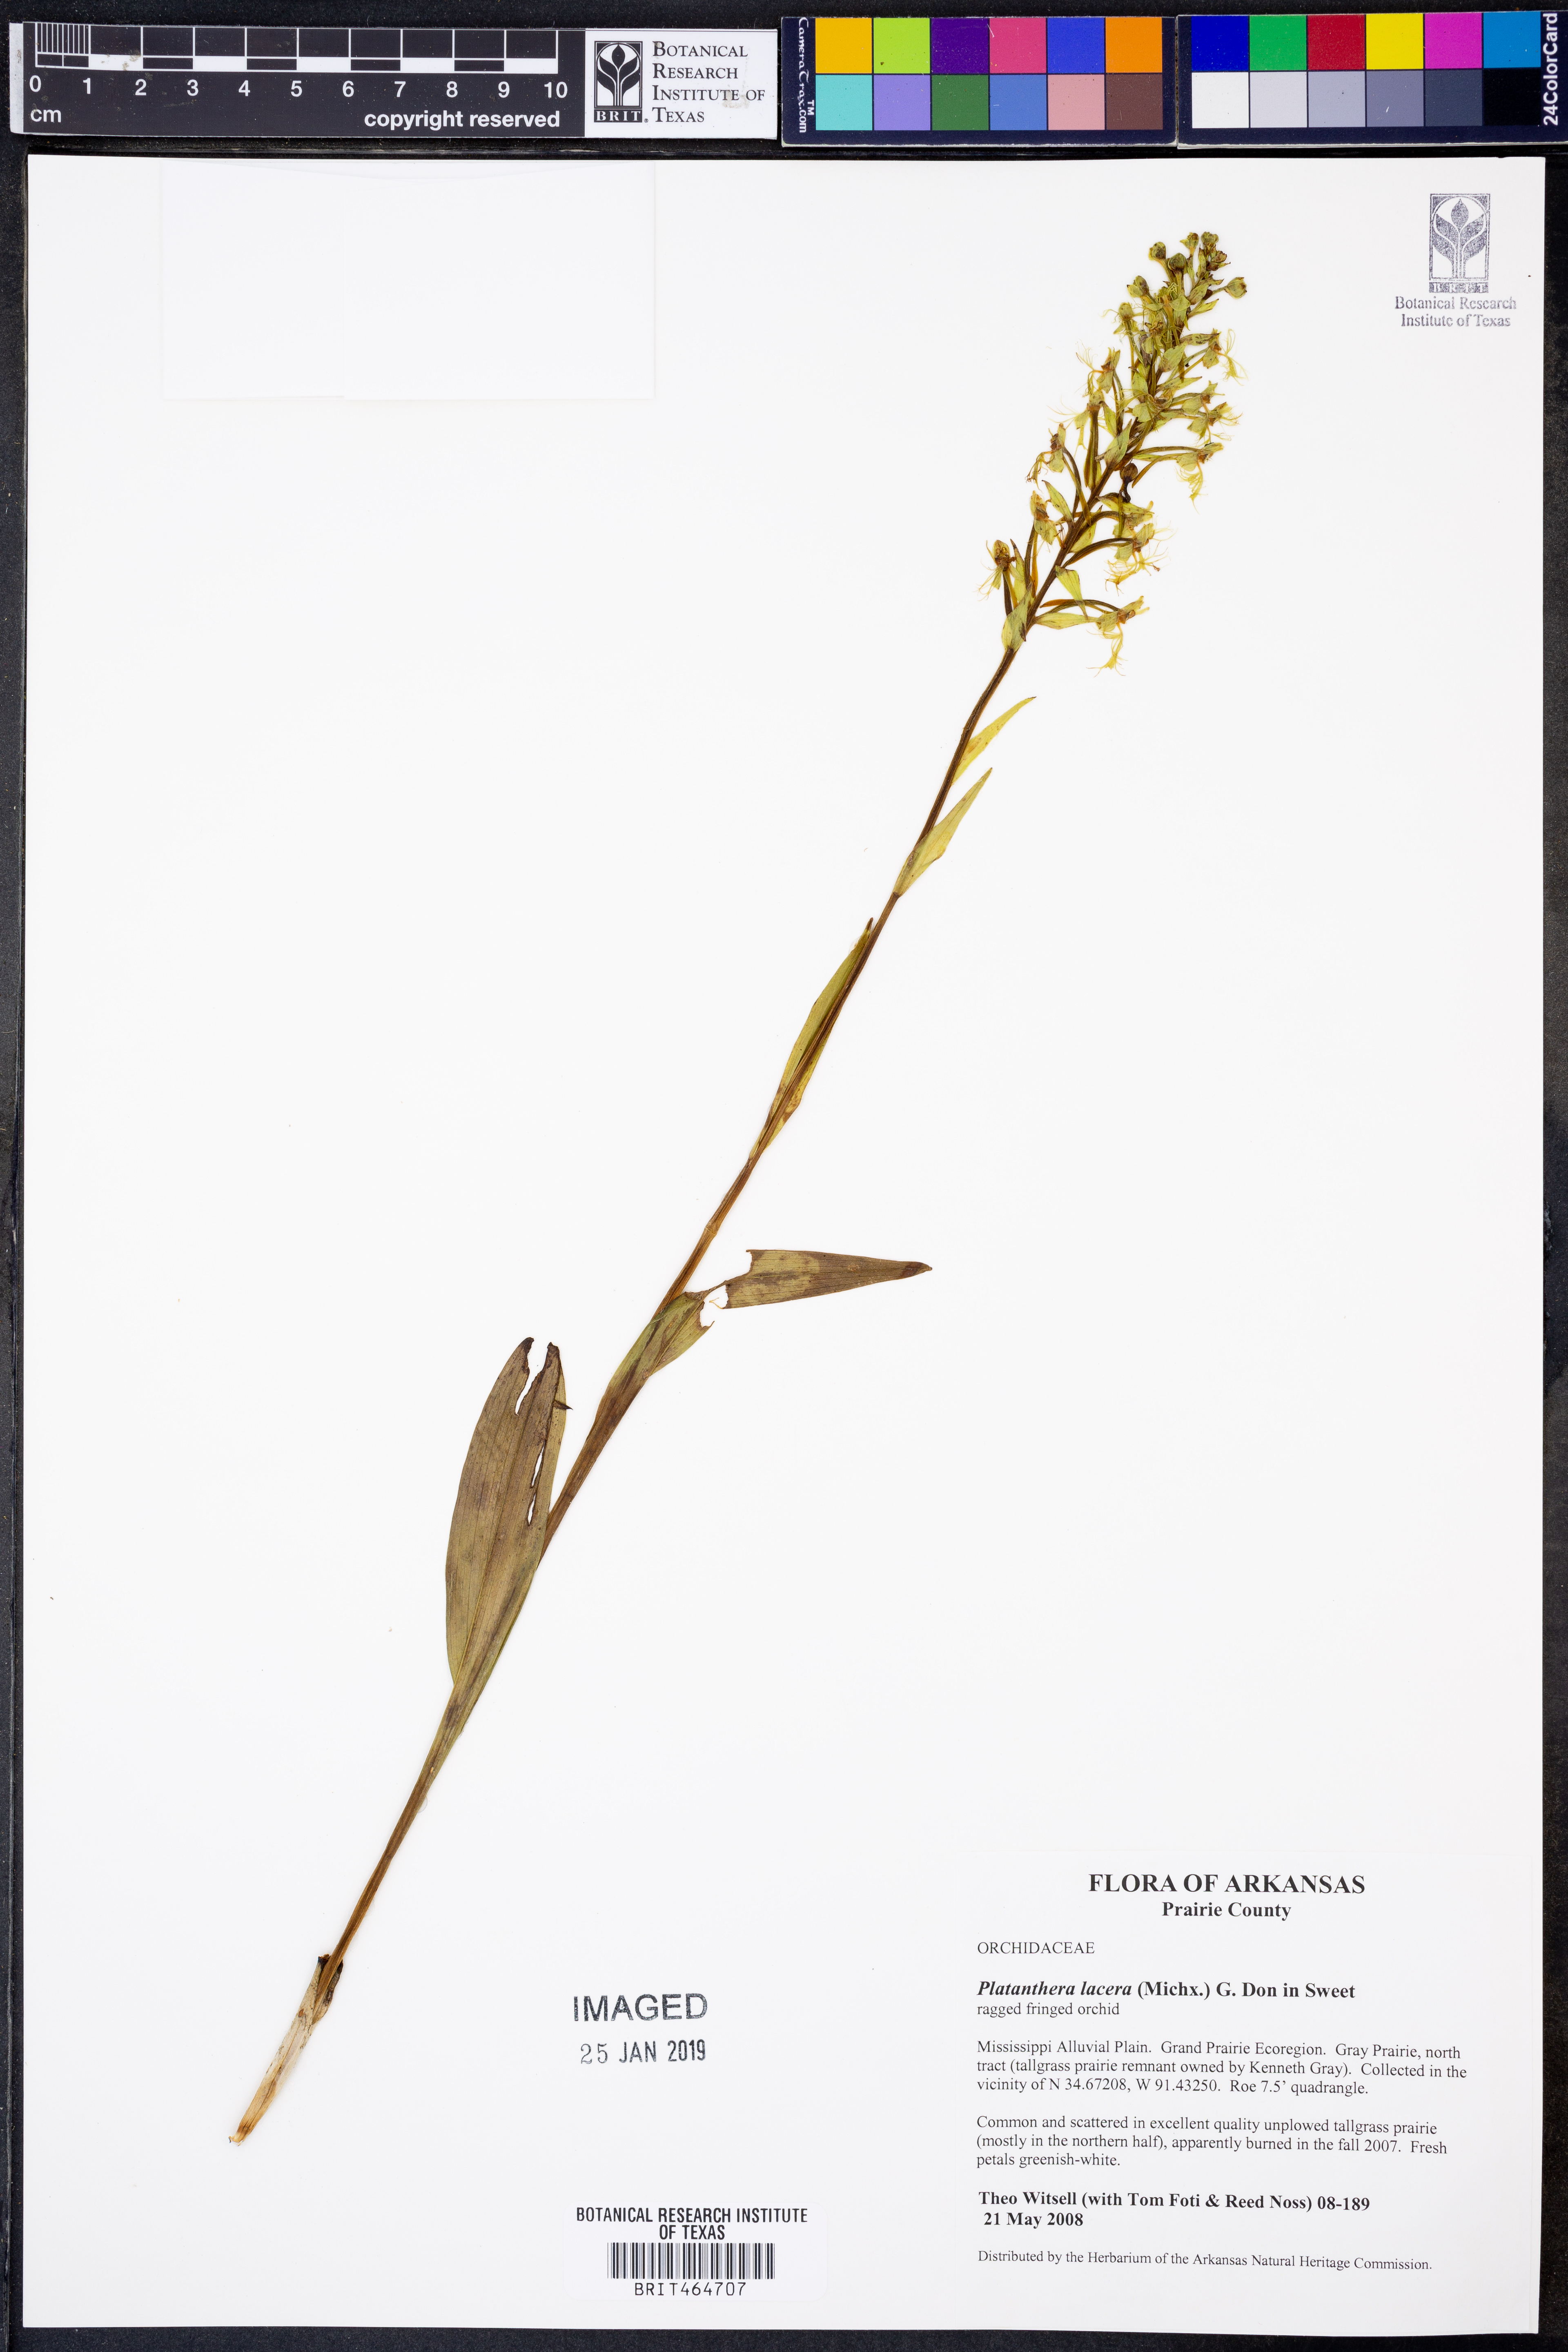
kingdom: Plantae
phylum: Tracheophyta
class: Liliopsida
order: Asparagales
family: Orchidaceae
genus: Platanthera
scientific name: Platanthera lacera
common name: Green fringed orchid
